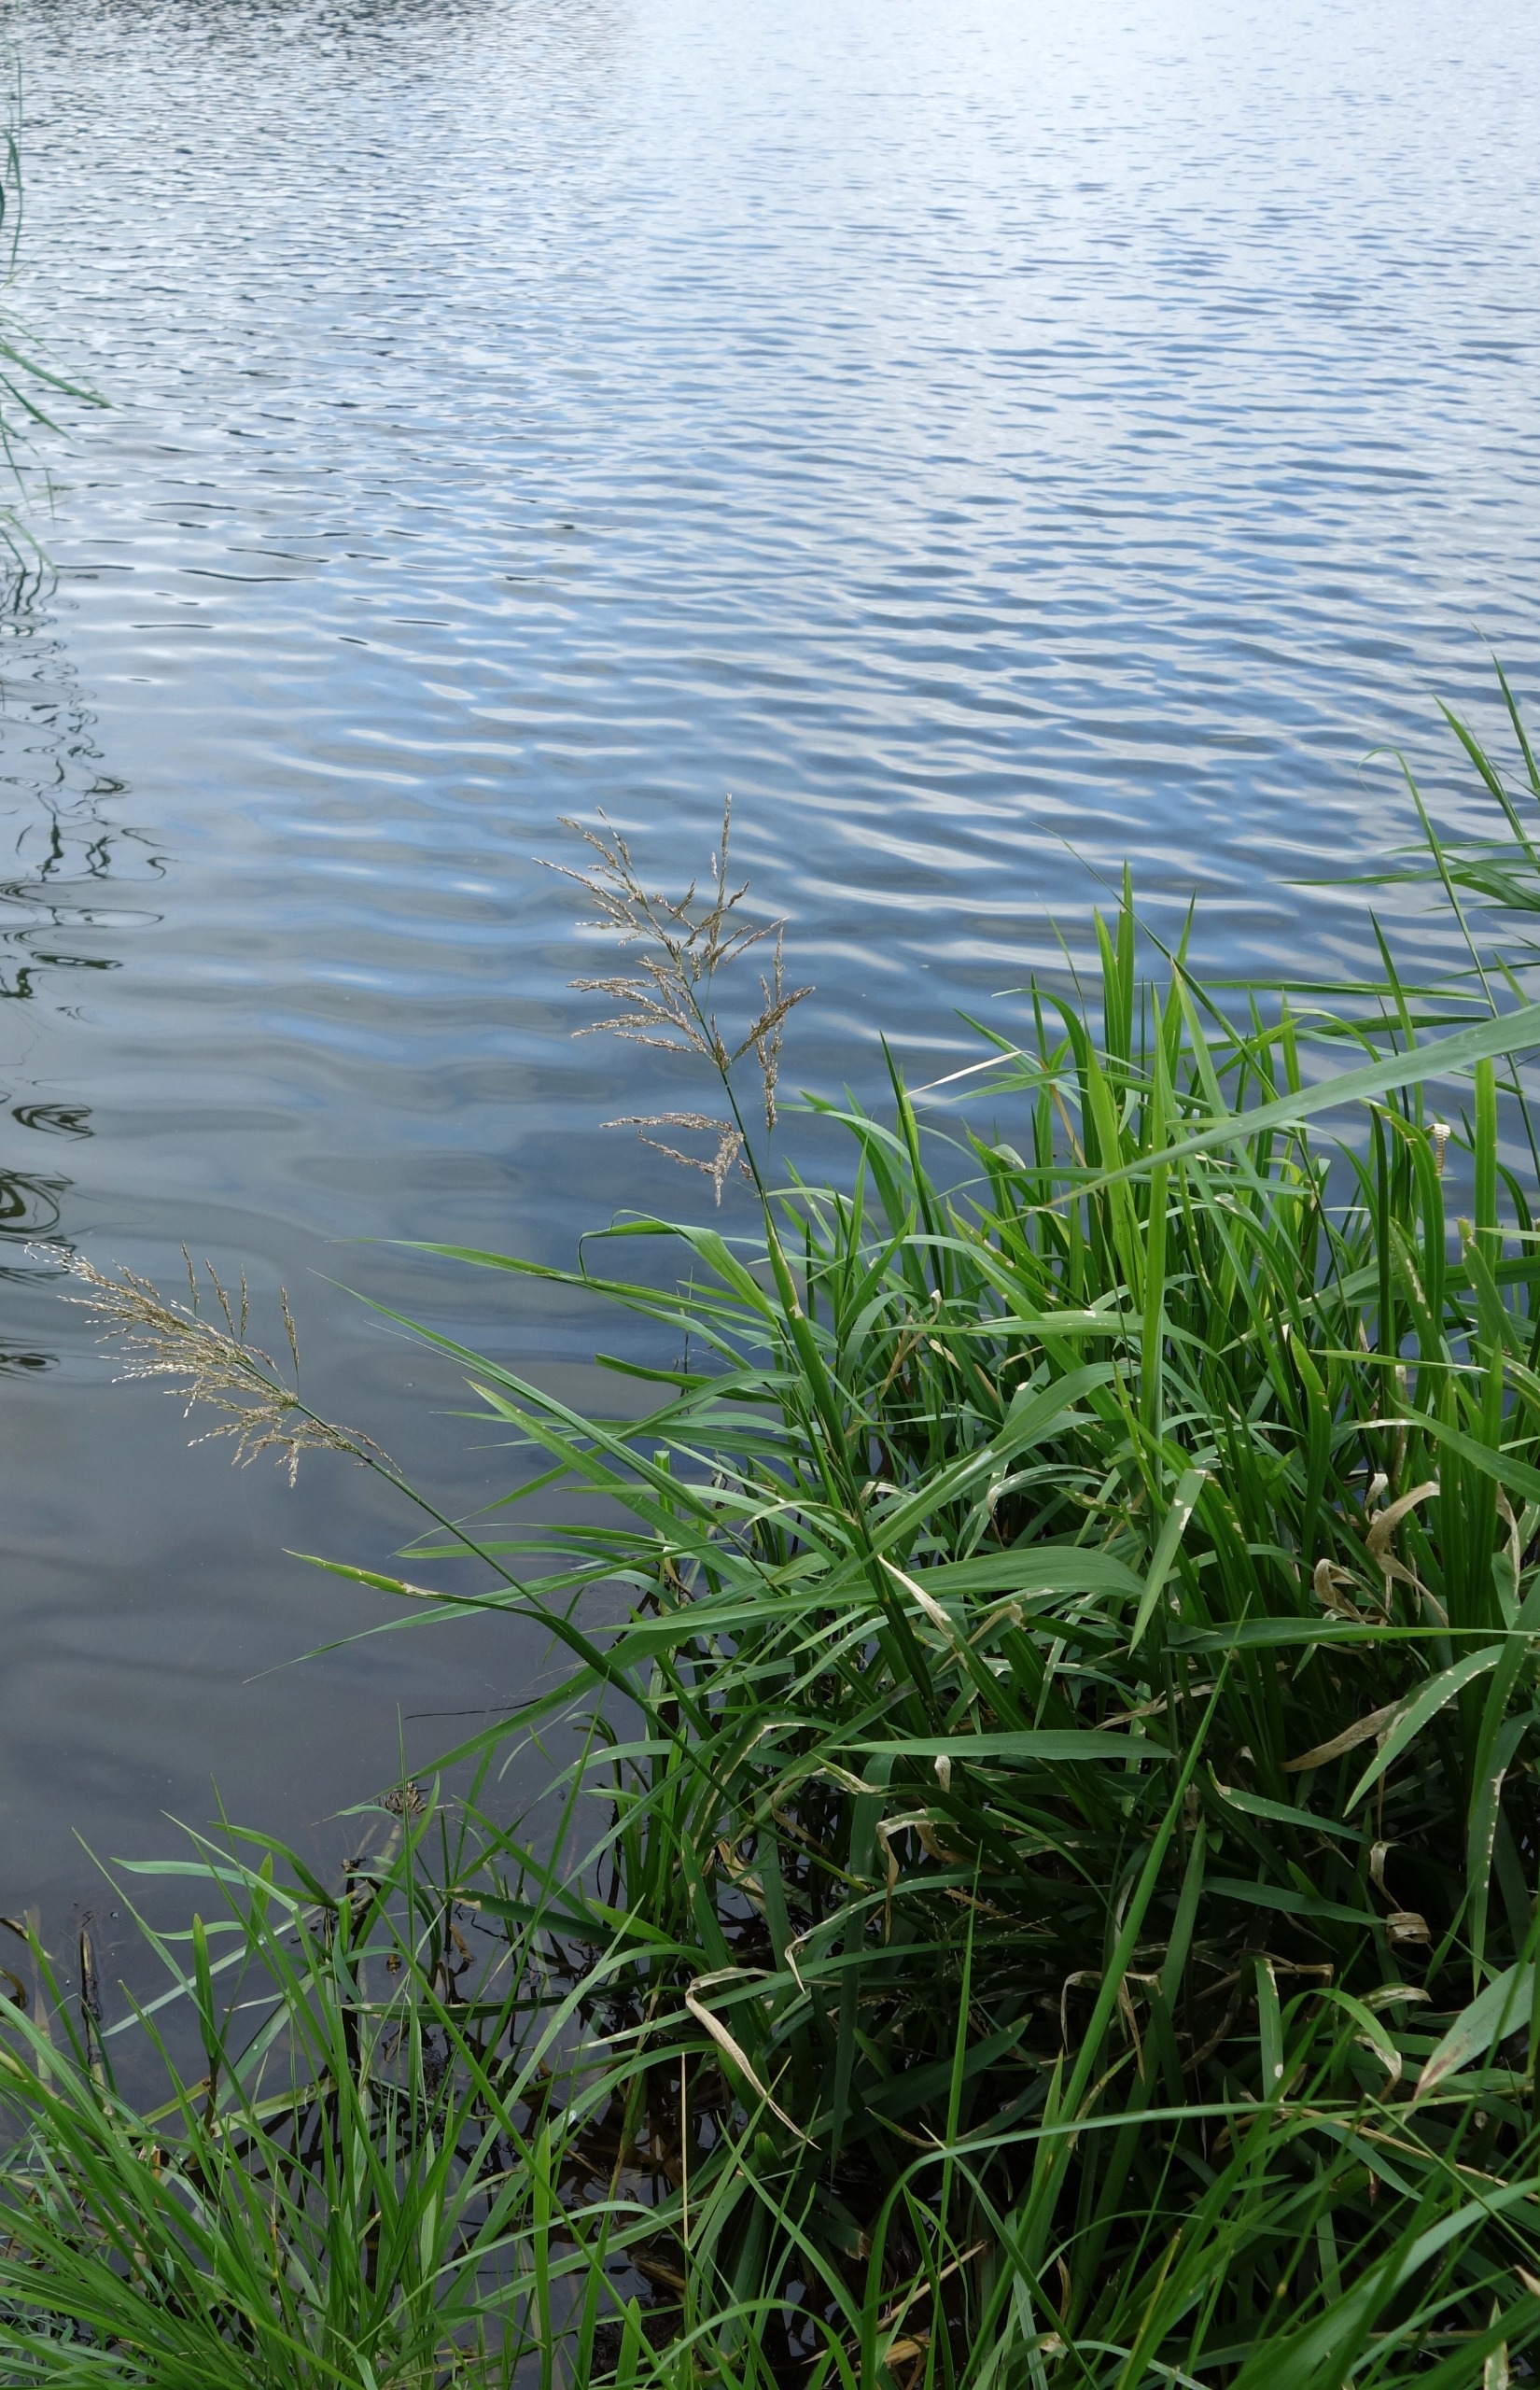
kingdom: Plantae
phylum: Tracheophyta
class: Liliopsida
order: Poales
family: Poaceae
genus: Glyceria
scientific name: Glyceria maxima
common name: Høj sødgræs
